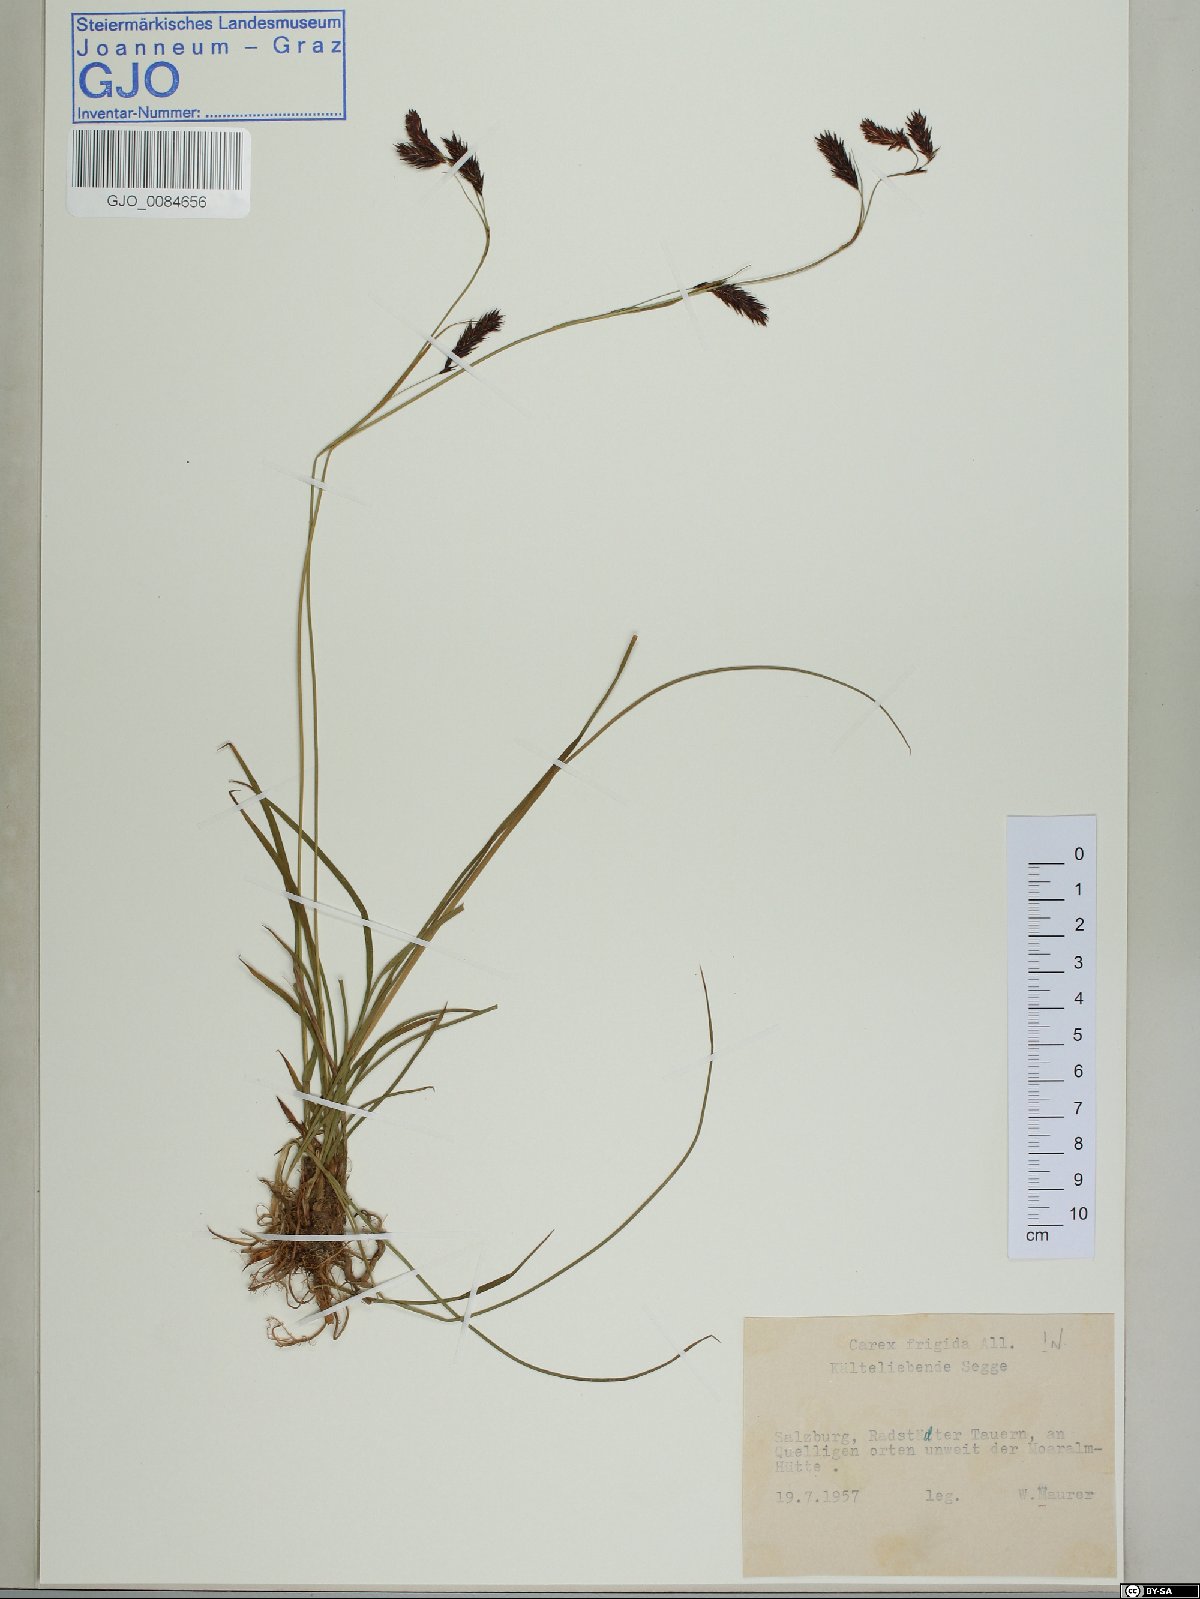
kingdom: Plantae
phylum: Tracheophyta
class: Liliopsida
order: Poales
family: Cyperaceae
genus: Carex
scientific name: Carex frigida
